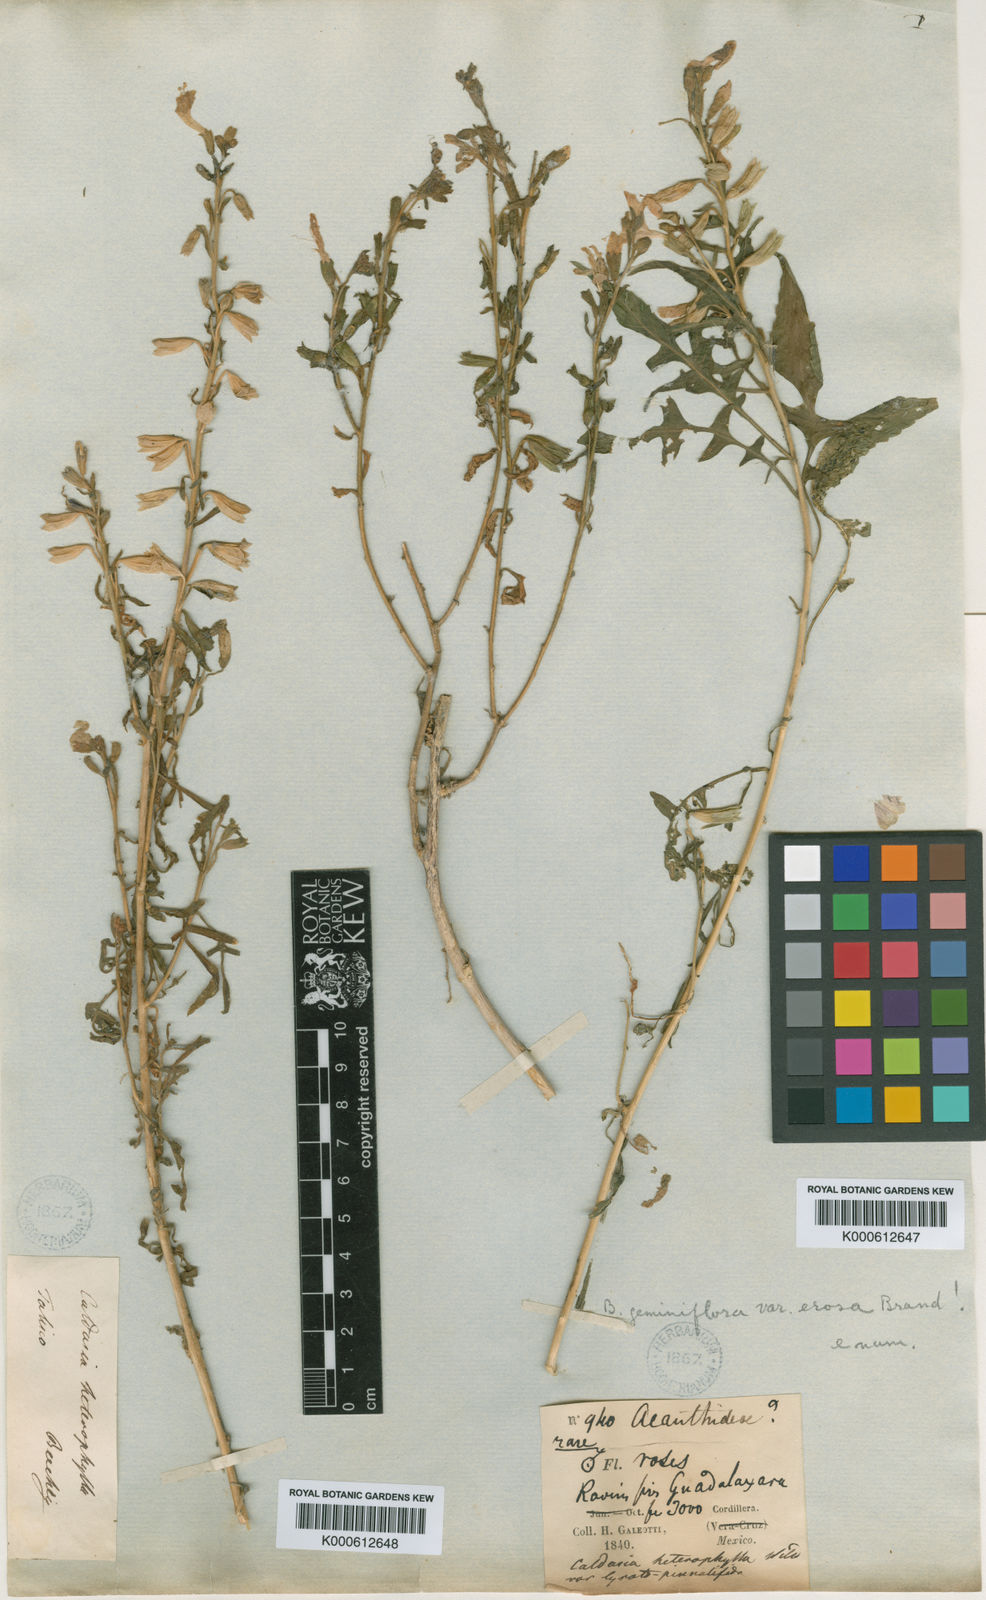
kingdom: Plantae
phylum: Tracheophyta
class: Magnoliopsida
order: Ericales
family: Polemoniaceae
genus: Bonplandia
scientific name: Bonplandia geminiflora
